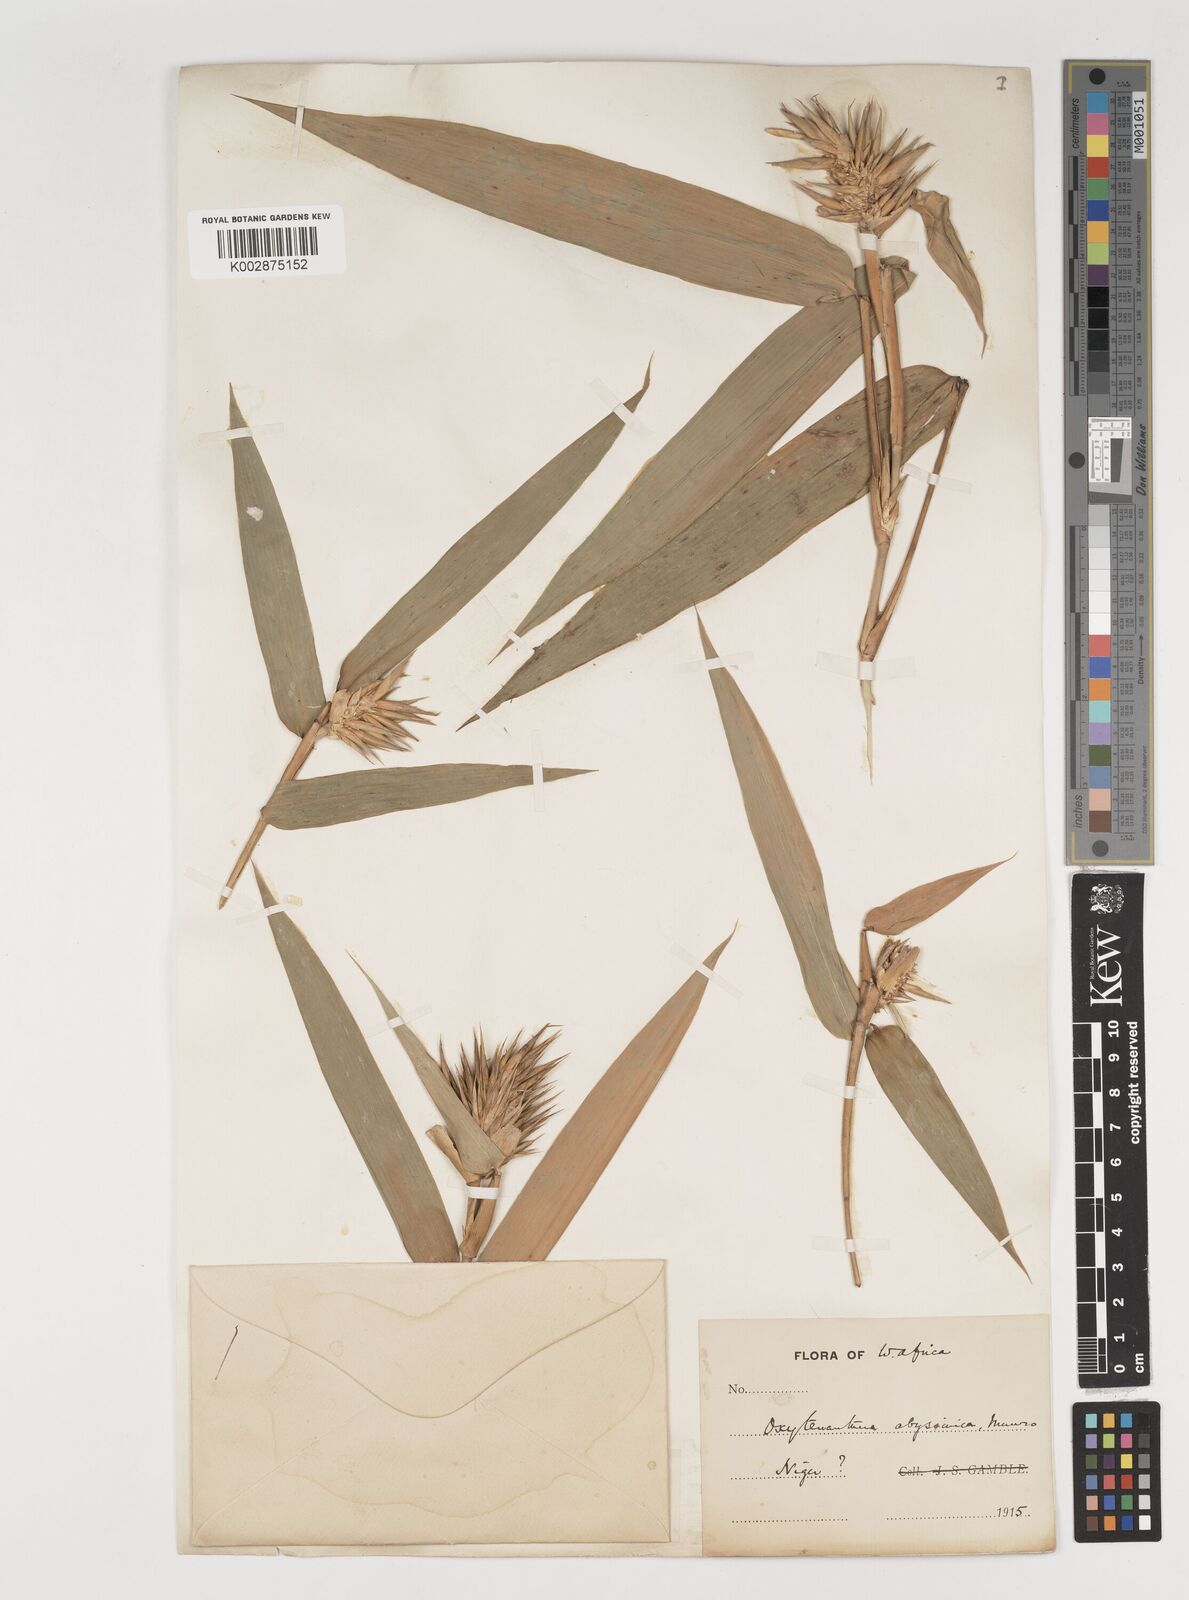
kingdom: Plantae
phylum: Tracheophyta
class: Liliopsida
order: Poales
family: Poaceae
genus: Oxytenanthera
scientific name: Oxytenanthera abyssinica
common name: Wine bamboo
